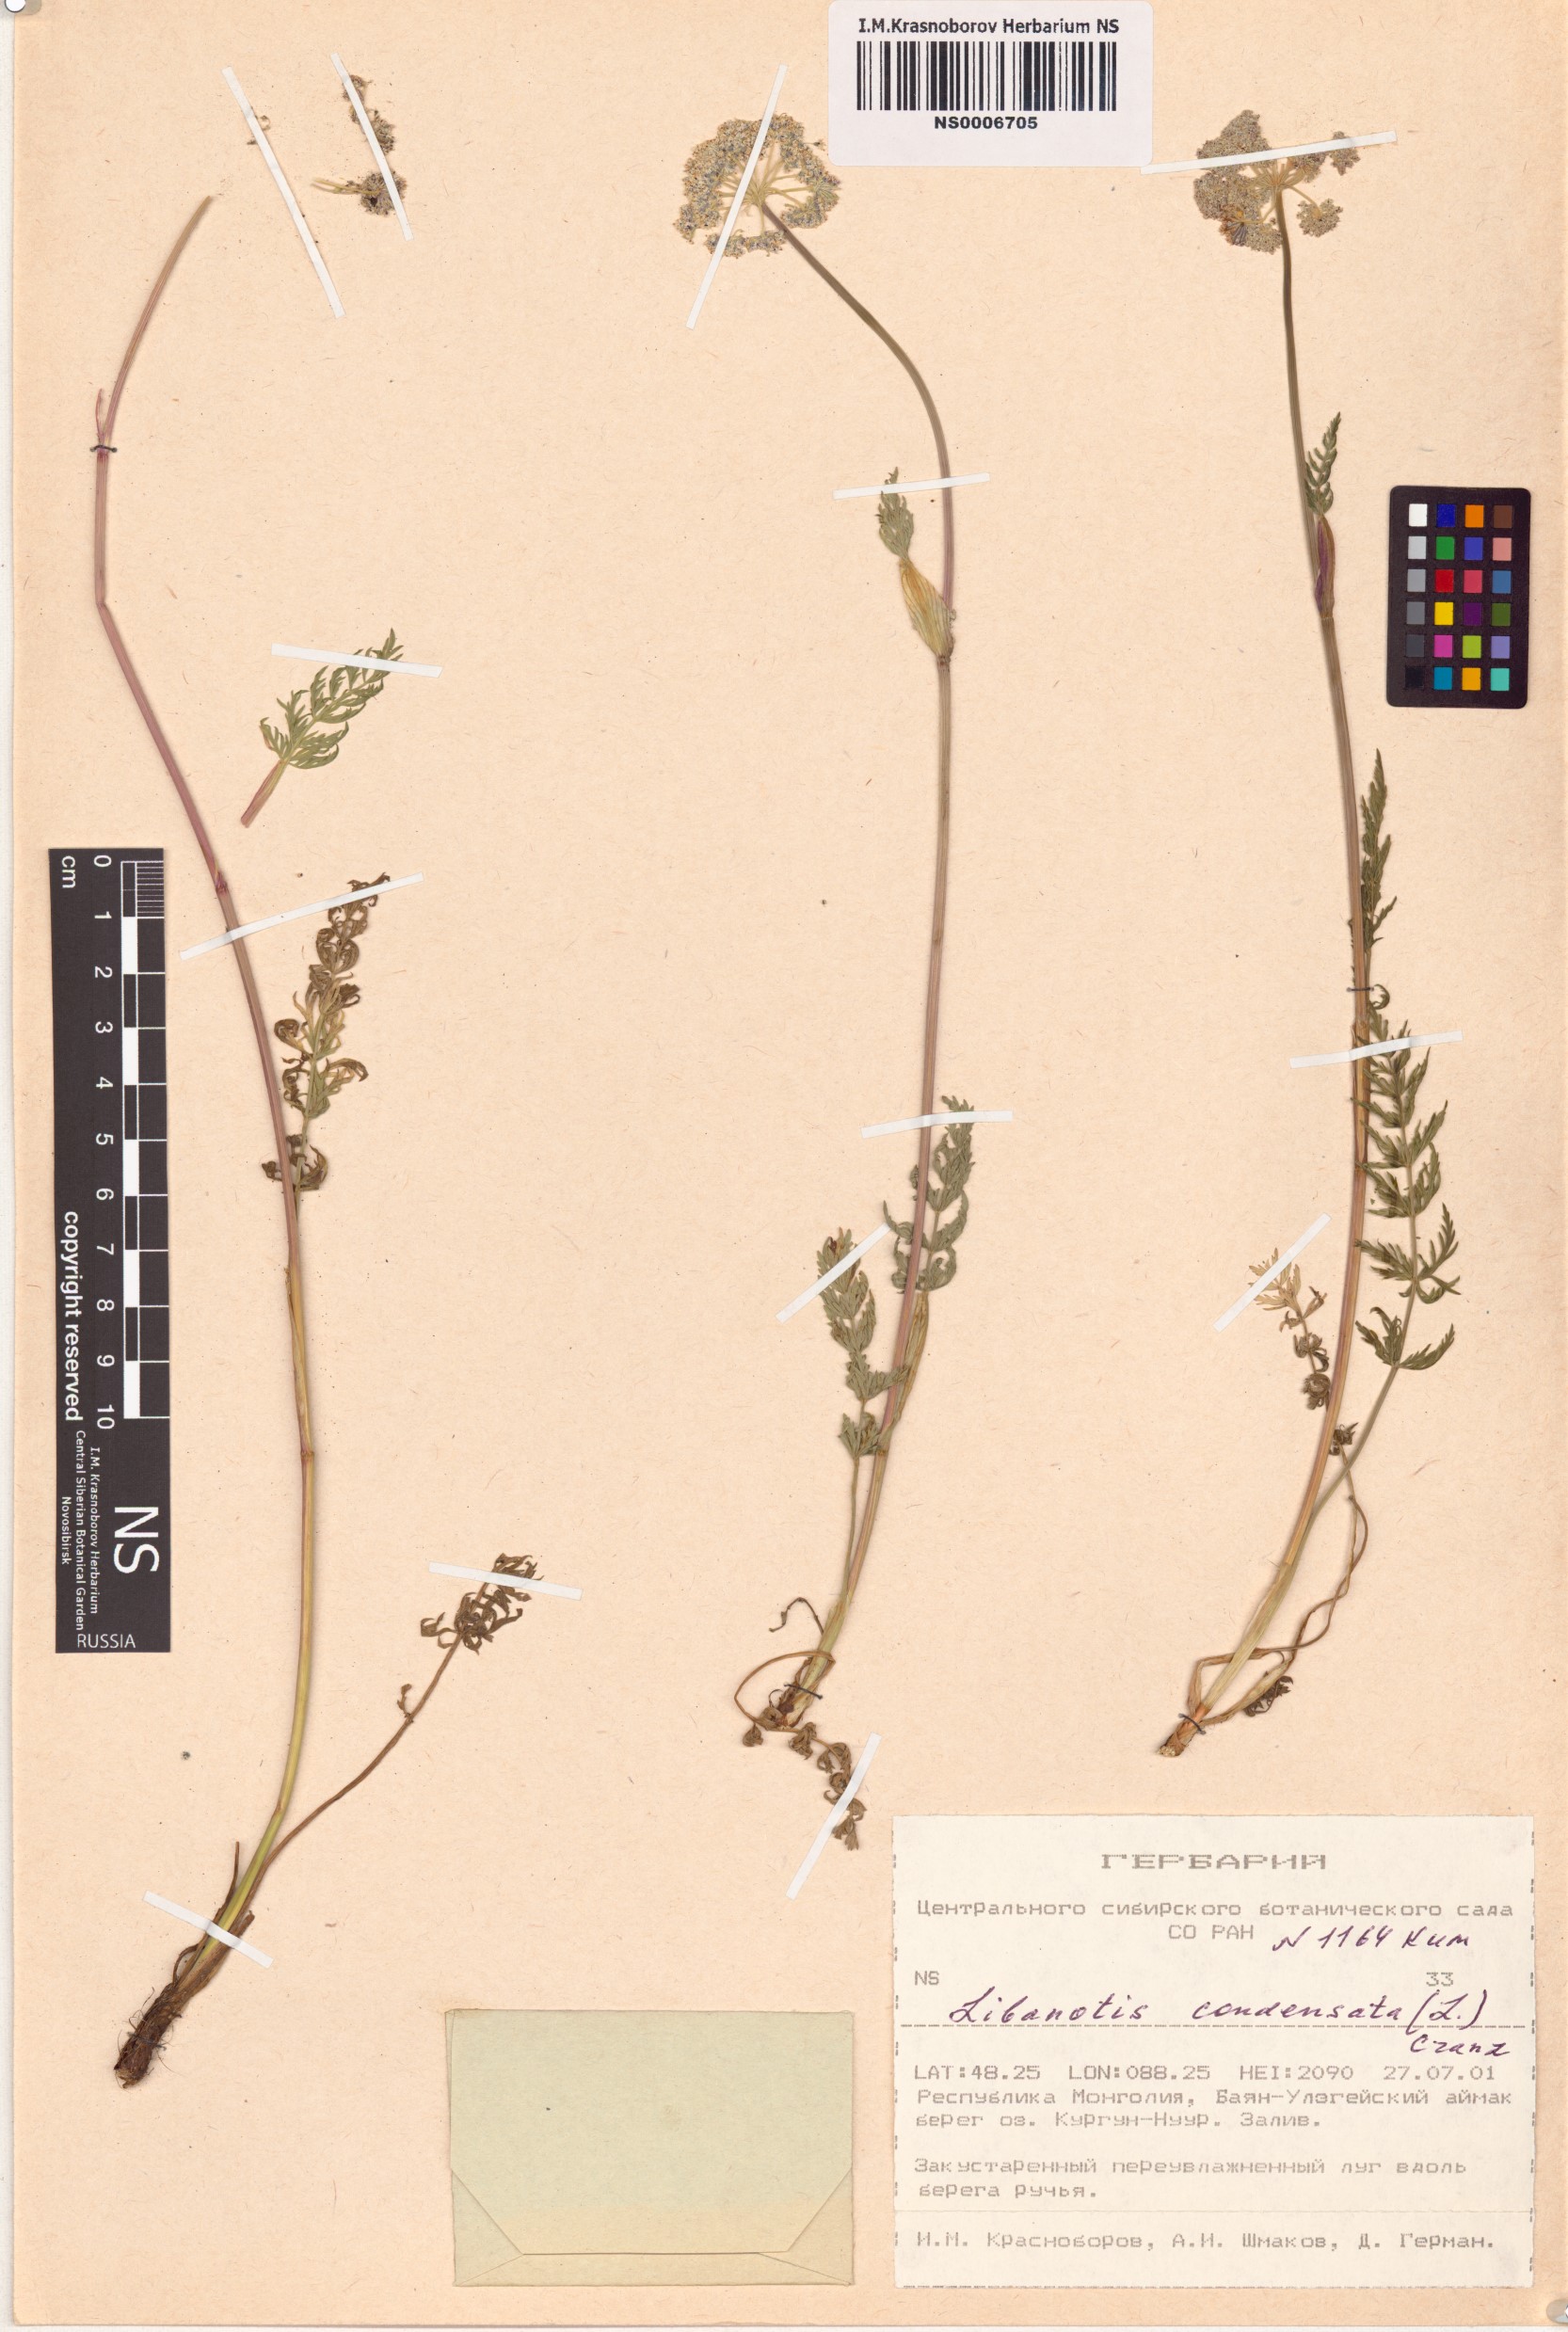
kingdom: Plantae
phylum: Tracheophyta
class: Magnoliopsida
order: Apiales
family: Apiaceae
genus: Seseli
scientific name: Seseli condensatum
